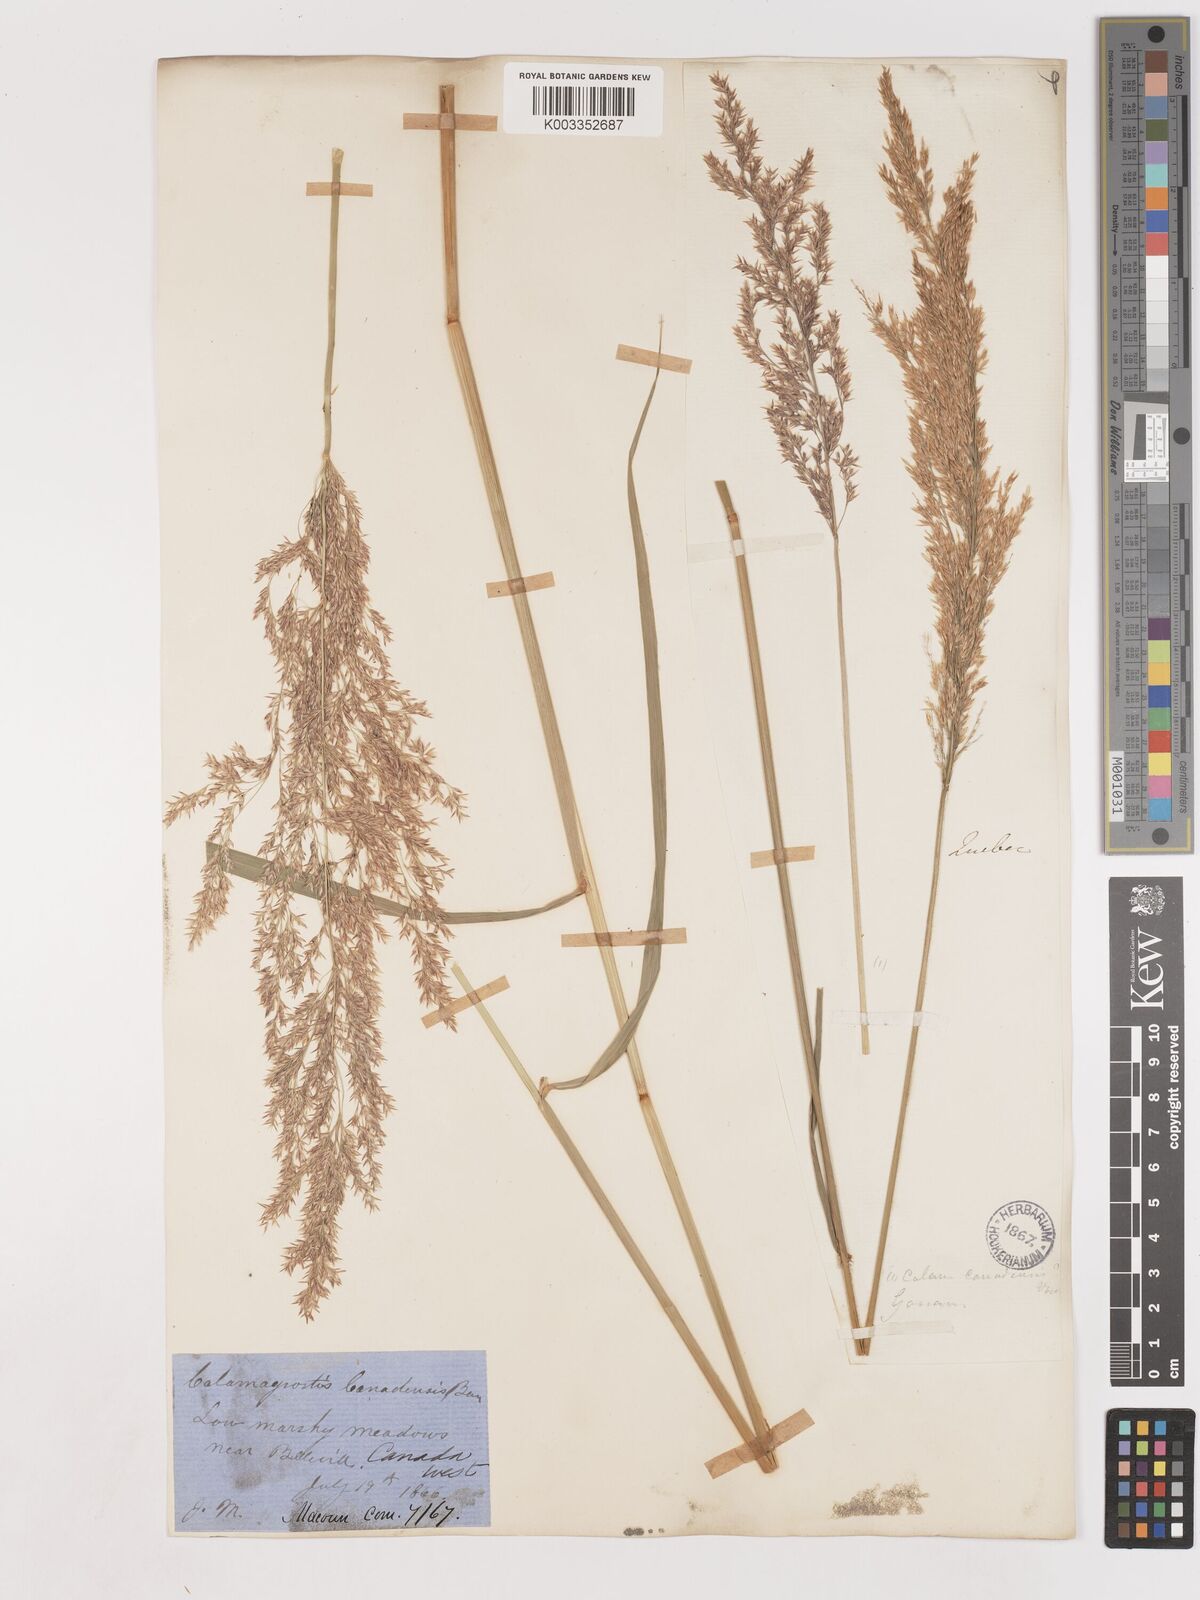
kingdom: Plantae
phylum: Tracheophyta
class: Liliopsida
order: Poales
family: Poaceae
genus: Calamagrostis
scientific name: Calamagrostis canadensis
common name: Canada bluejoint
